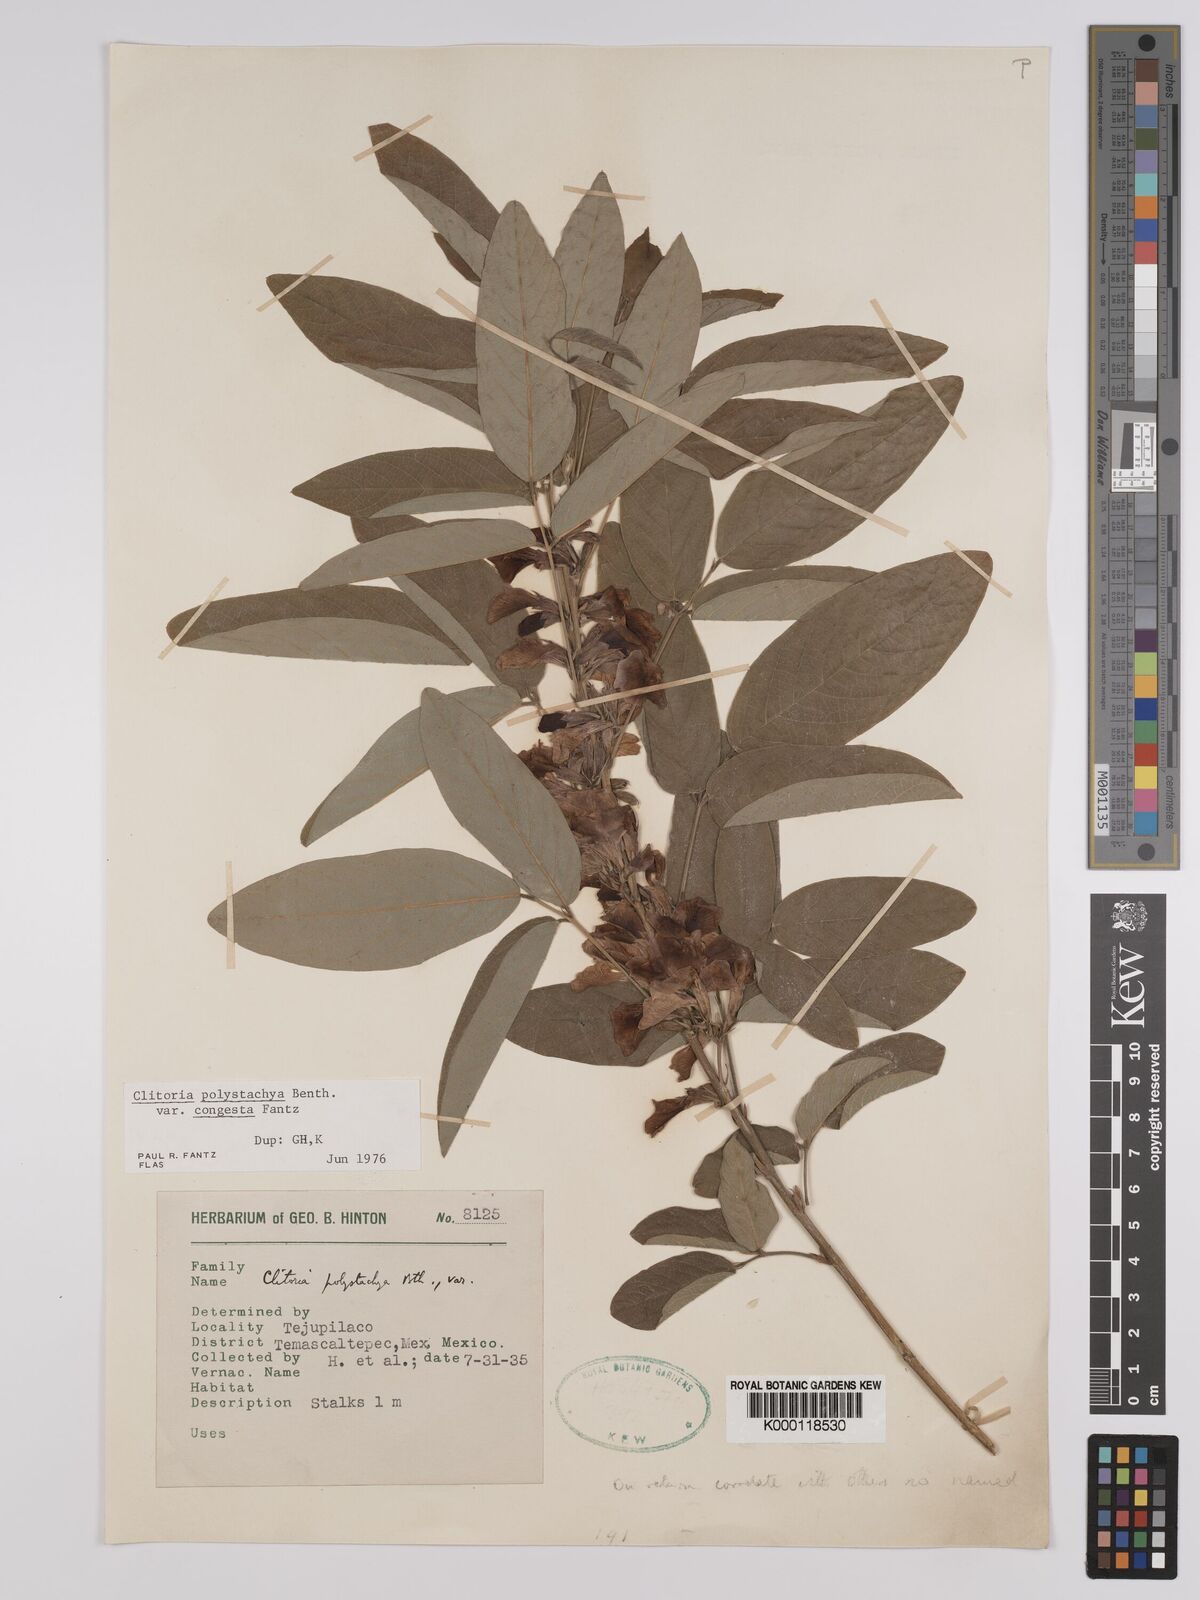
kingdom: Plantae
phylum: Tracheophyta
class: Magnoliopsida
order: Fabales
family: Fabaceae
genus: Clitoria
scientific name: Clitoria polystachya
